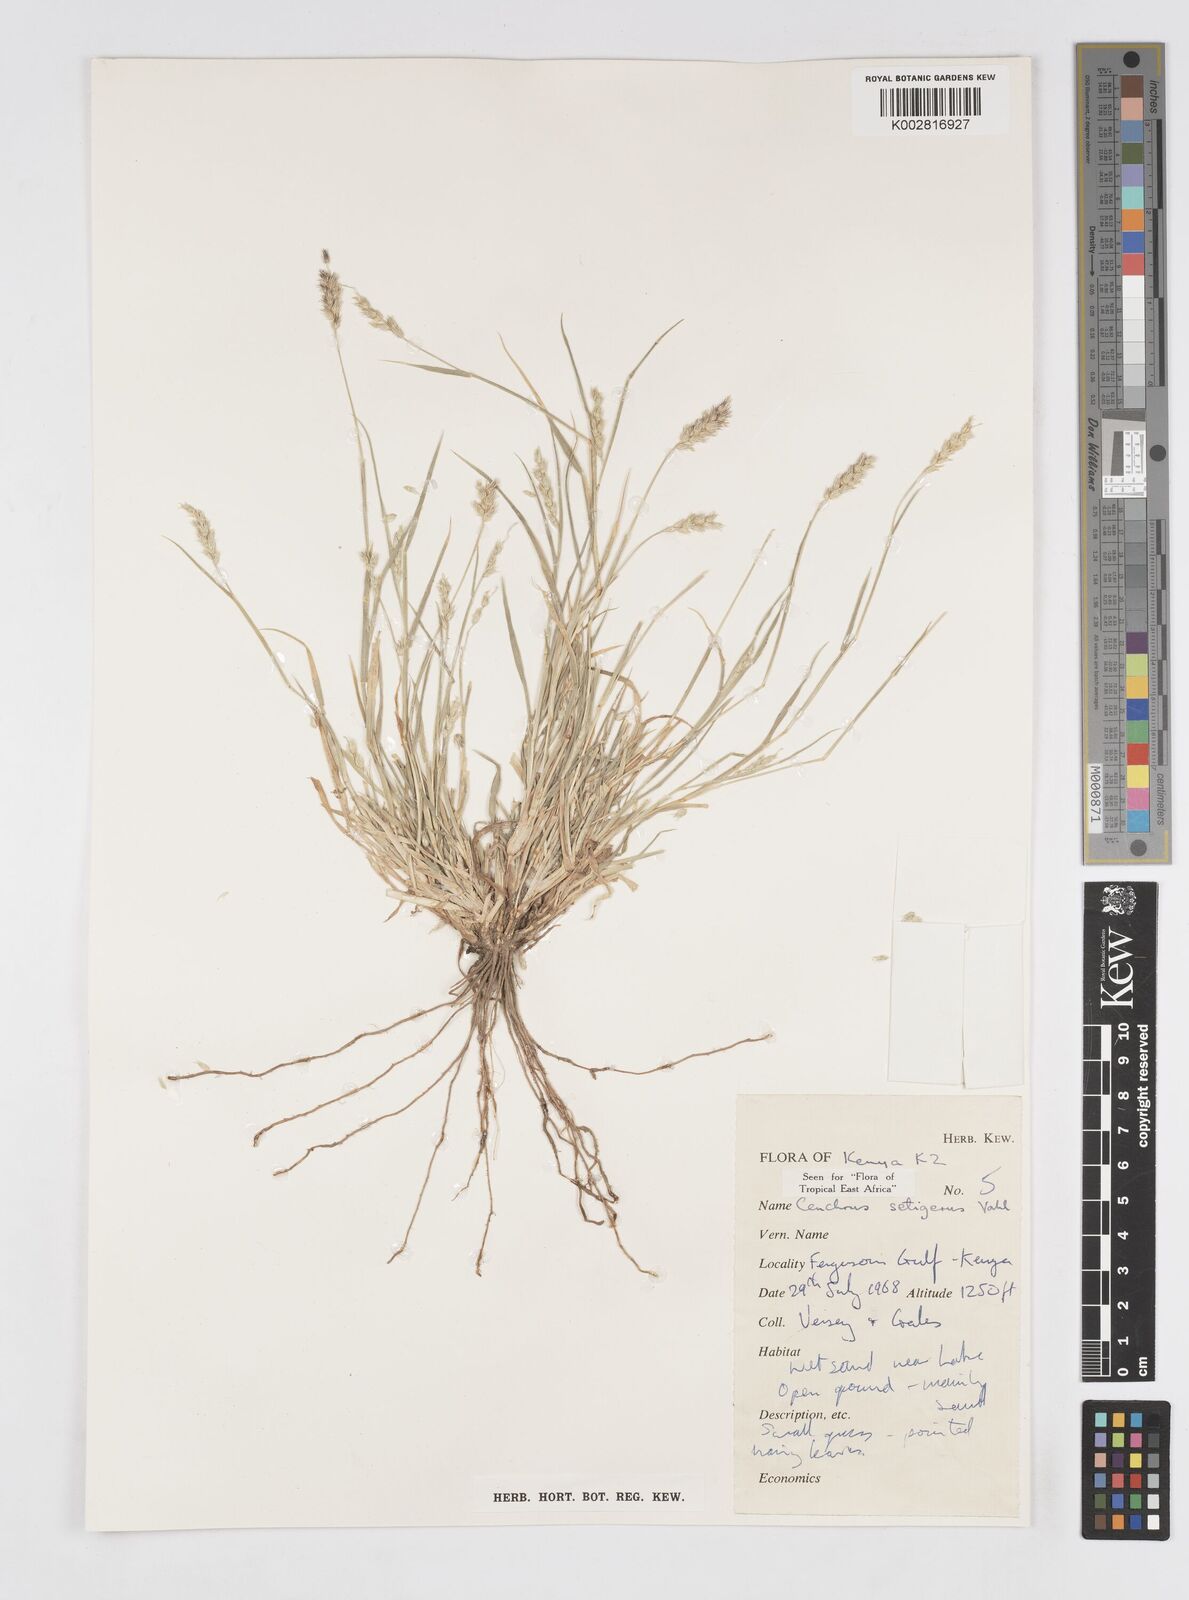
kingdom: Plantae
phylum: Tracheophyta
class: Liliopsida
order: Poales
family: Poaceae
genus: Cenchrus
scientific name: Cenchrus setigerus
